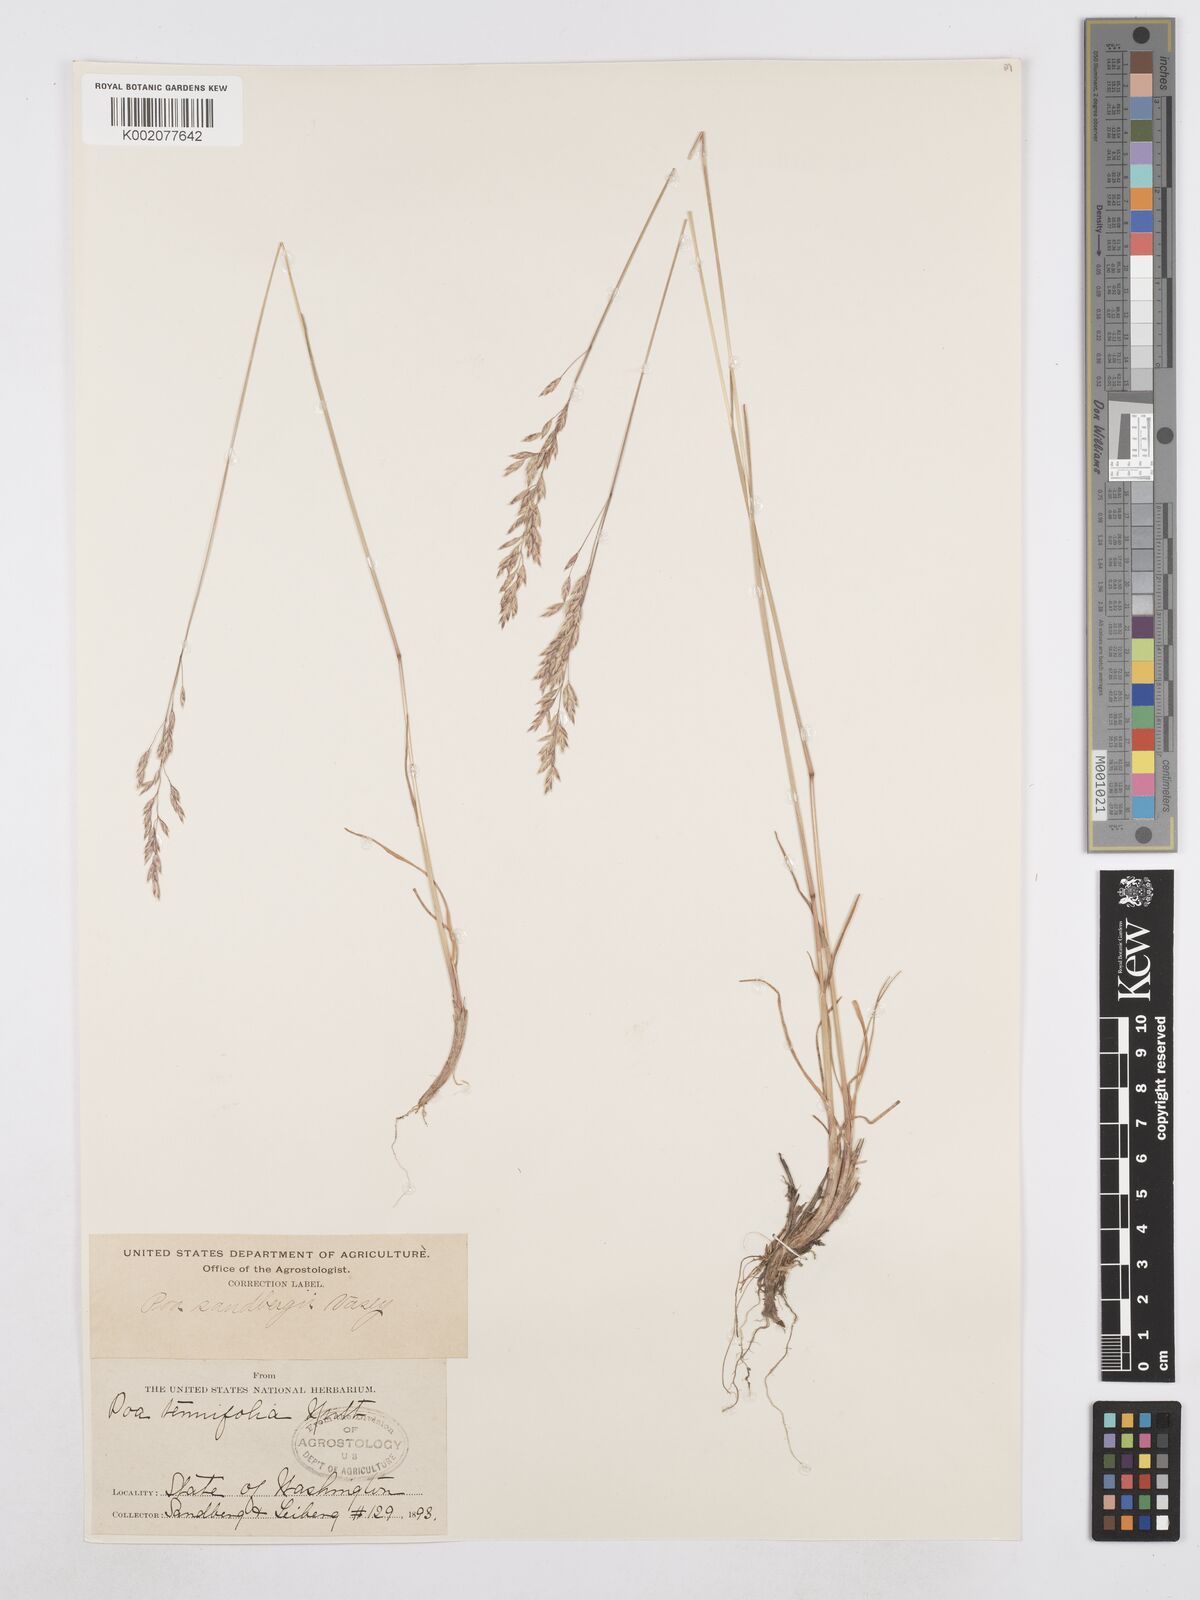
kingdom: Plantae
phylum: Tracheophyta
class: Liliopsida
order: Poales
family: Poaceae
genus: Poa
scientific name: Poa secunda
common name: Sandberg bluegrass
